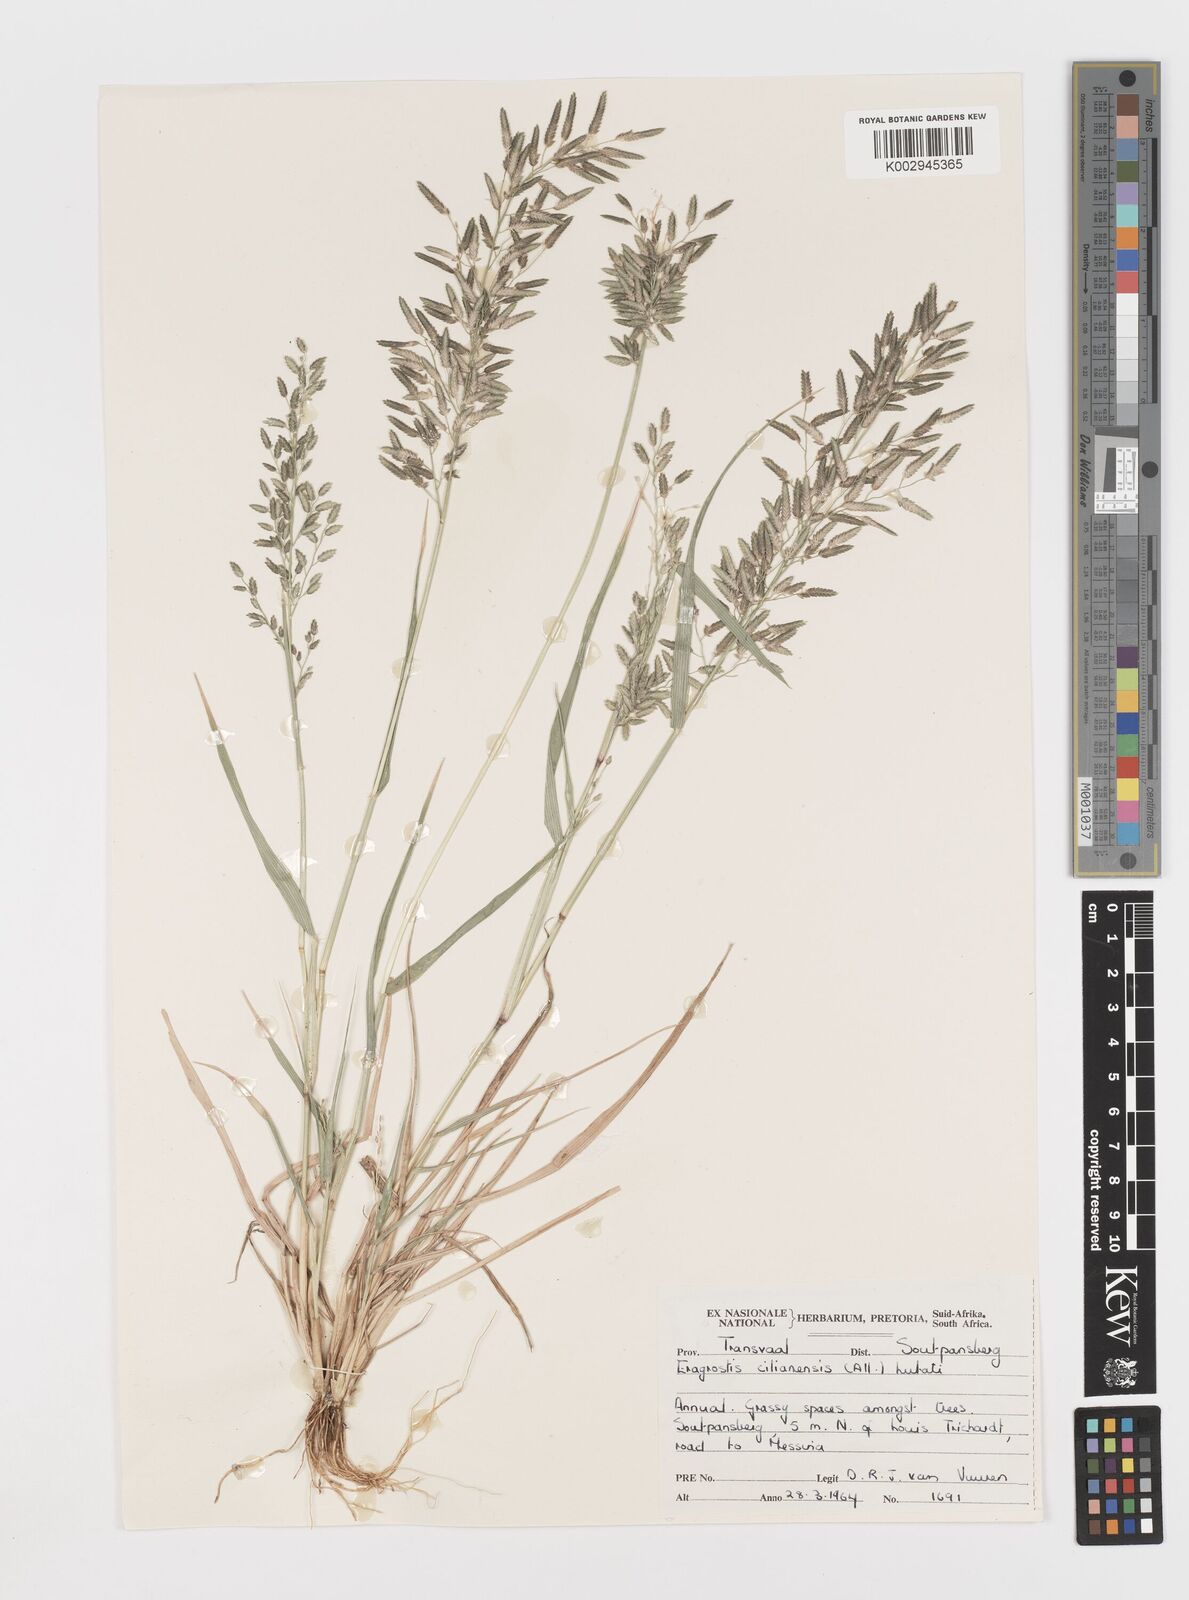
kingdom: Plantae
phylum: Tracheophyta
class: Liliopsida
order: Poales
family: Poaceae
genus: Eragrostis
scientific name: Eragrostis cilianensis
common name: Stinkgrass
